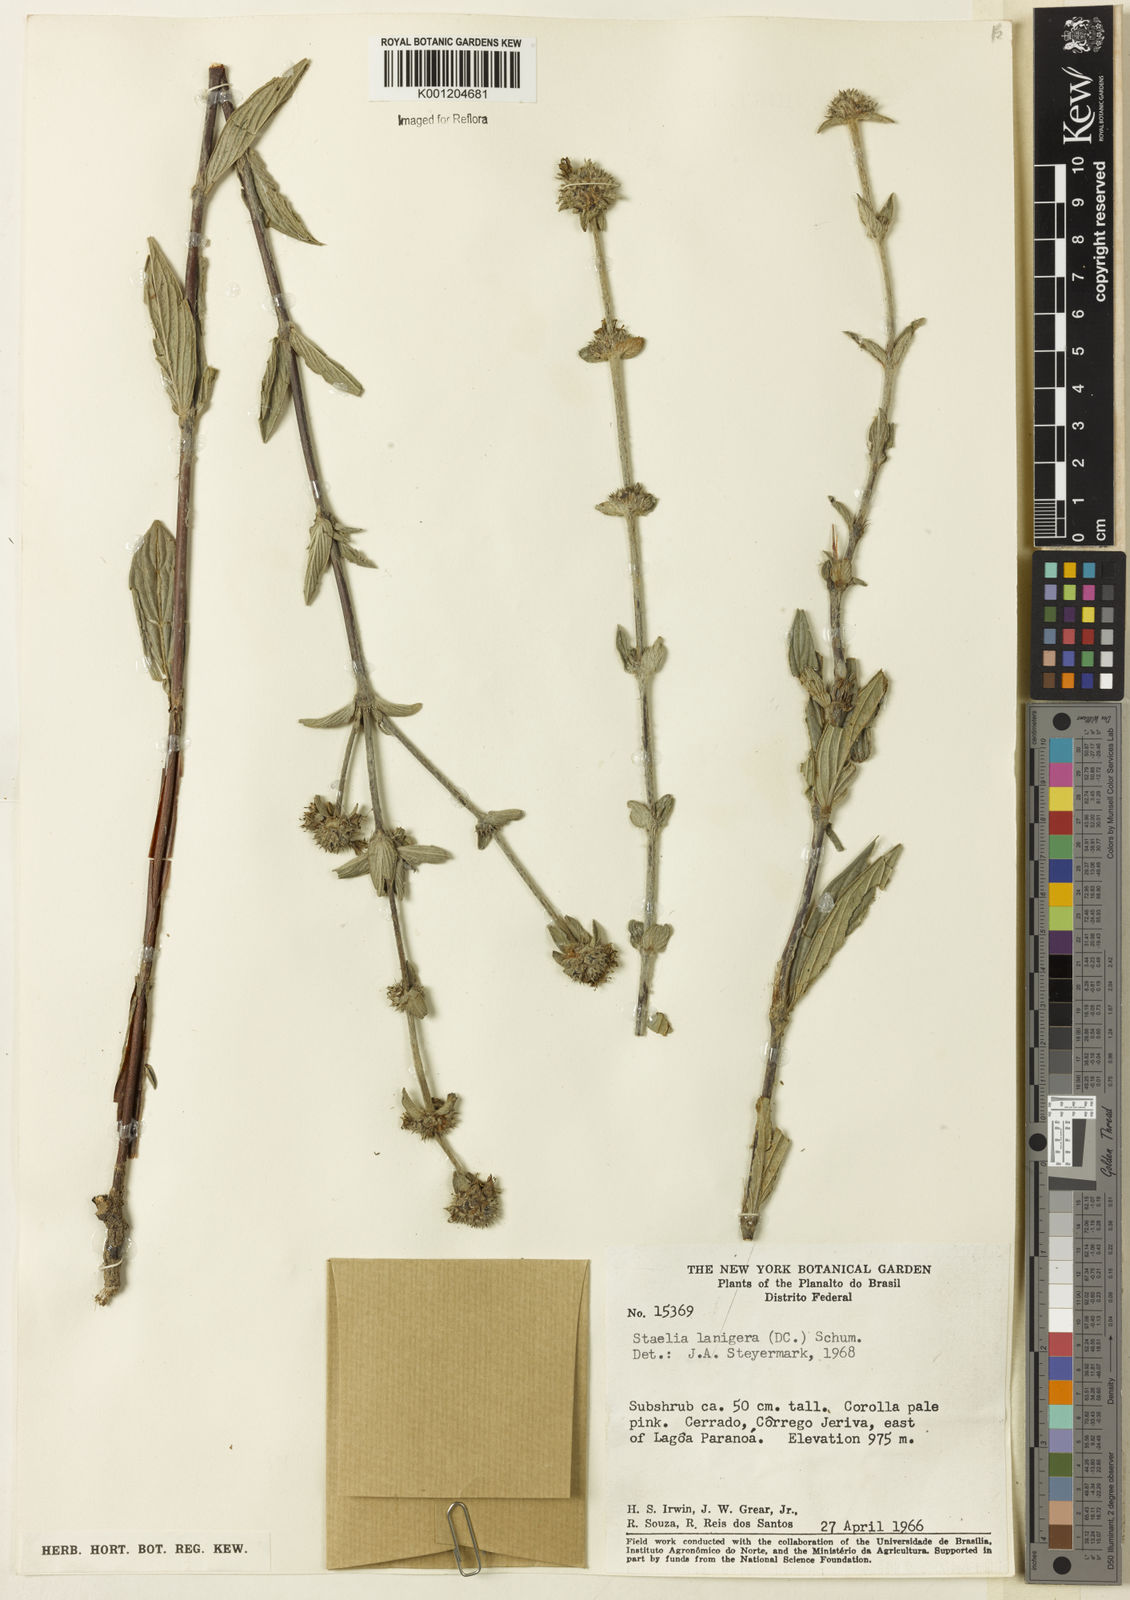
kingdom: Plantae
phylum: Tracheophyta
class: Magnoliopsida
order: Gentianales
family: Rubiaceae
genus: Planaltina
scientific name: Planaltina capitata
